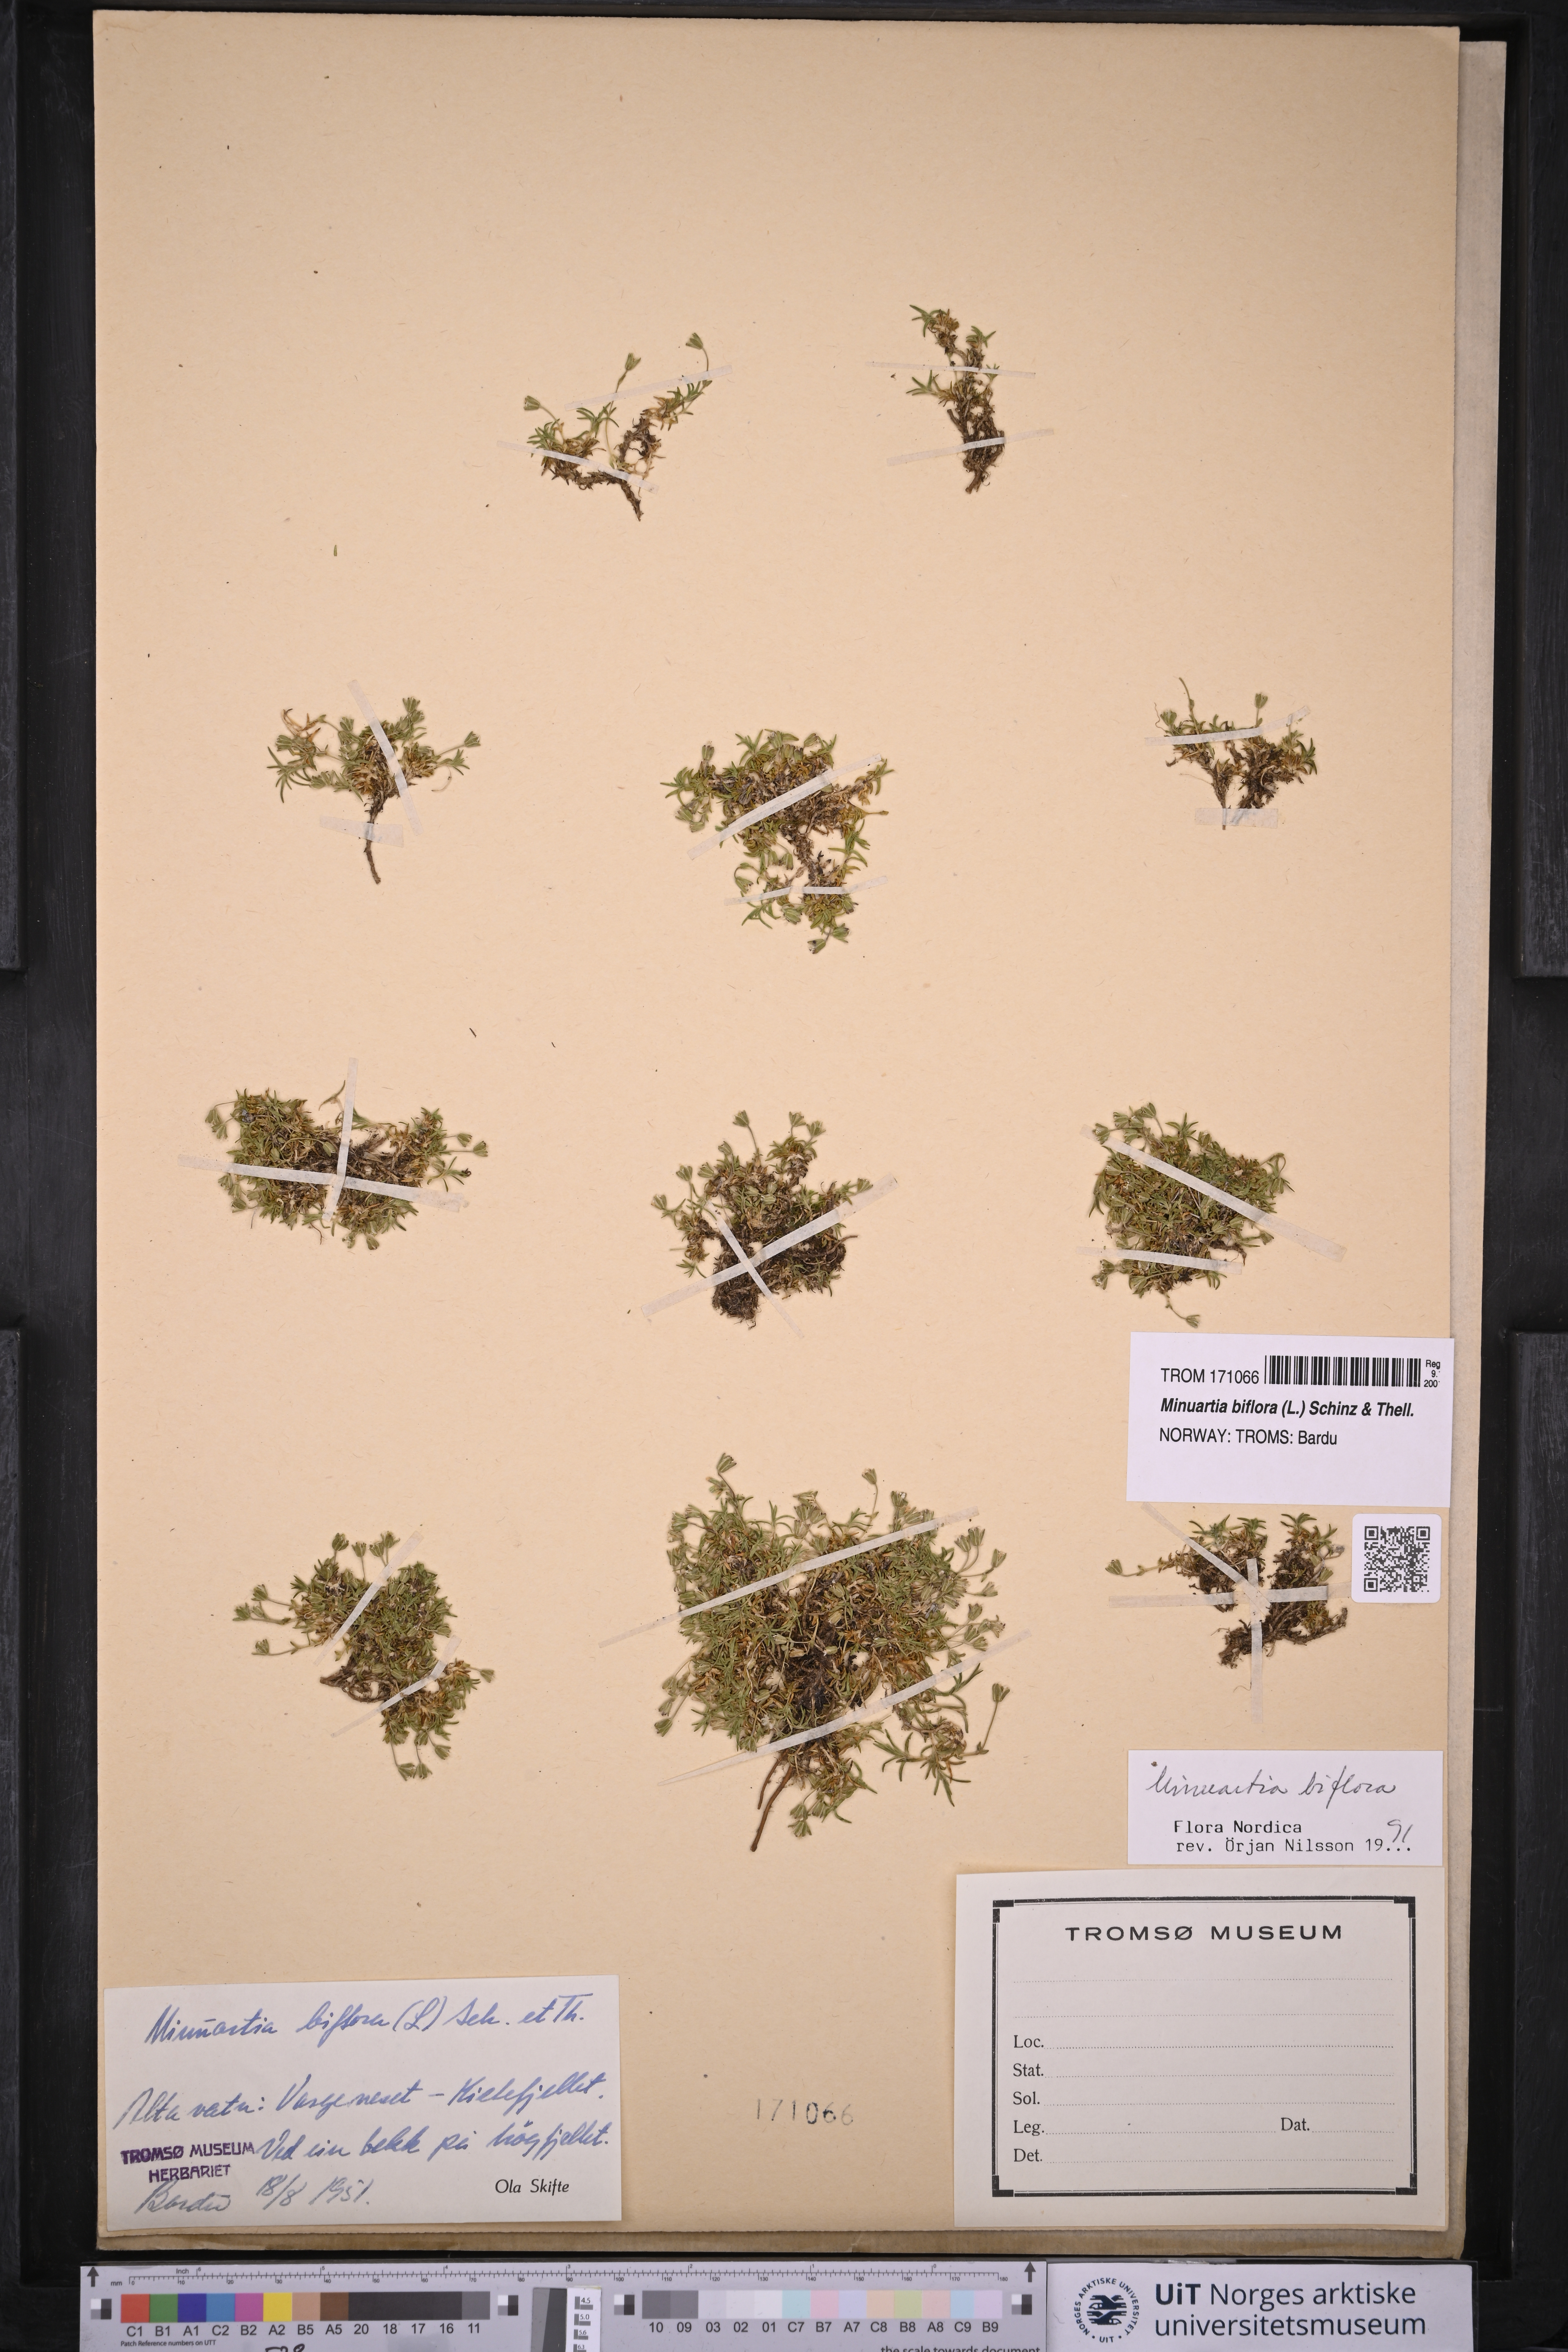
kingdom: Plantae
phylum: Tracheophyta
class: Magnoliopsida
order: Caryophyllales
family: Caryophyllaceae
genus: Cherleria
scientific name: Cherleria biflora
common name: Mountain sandwort
